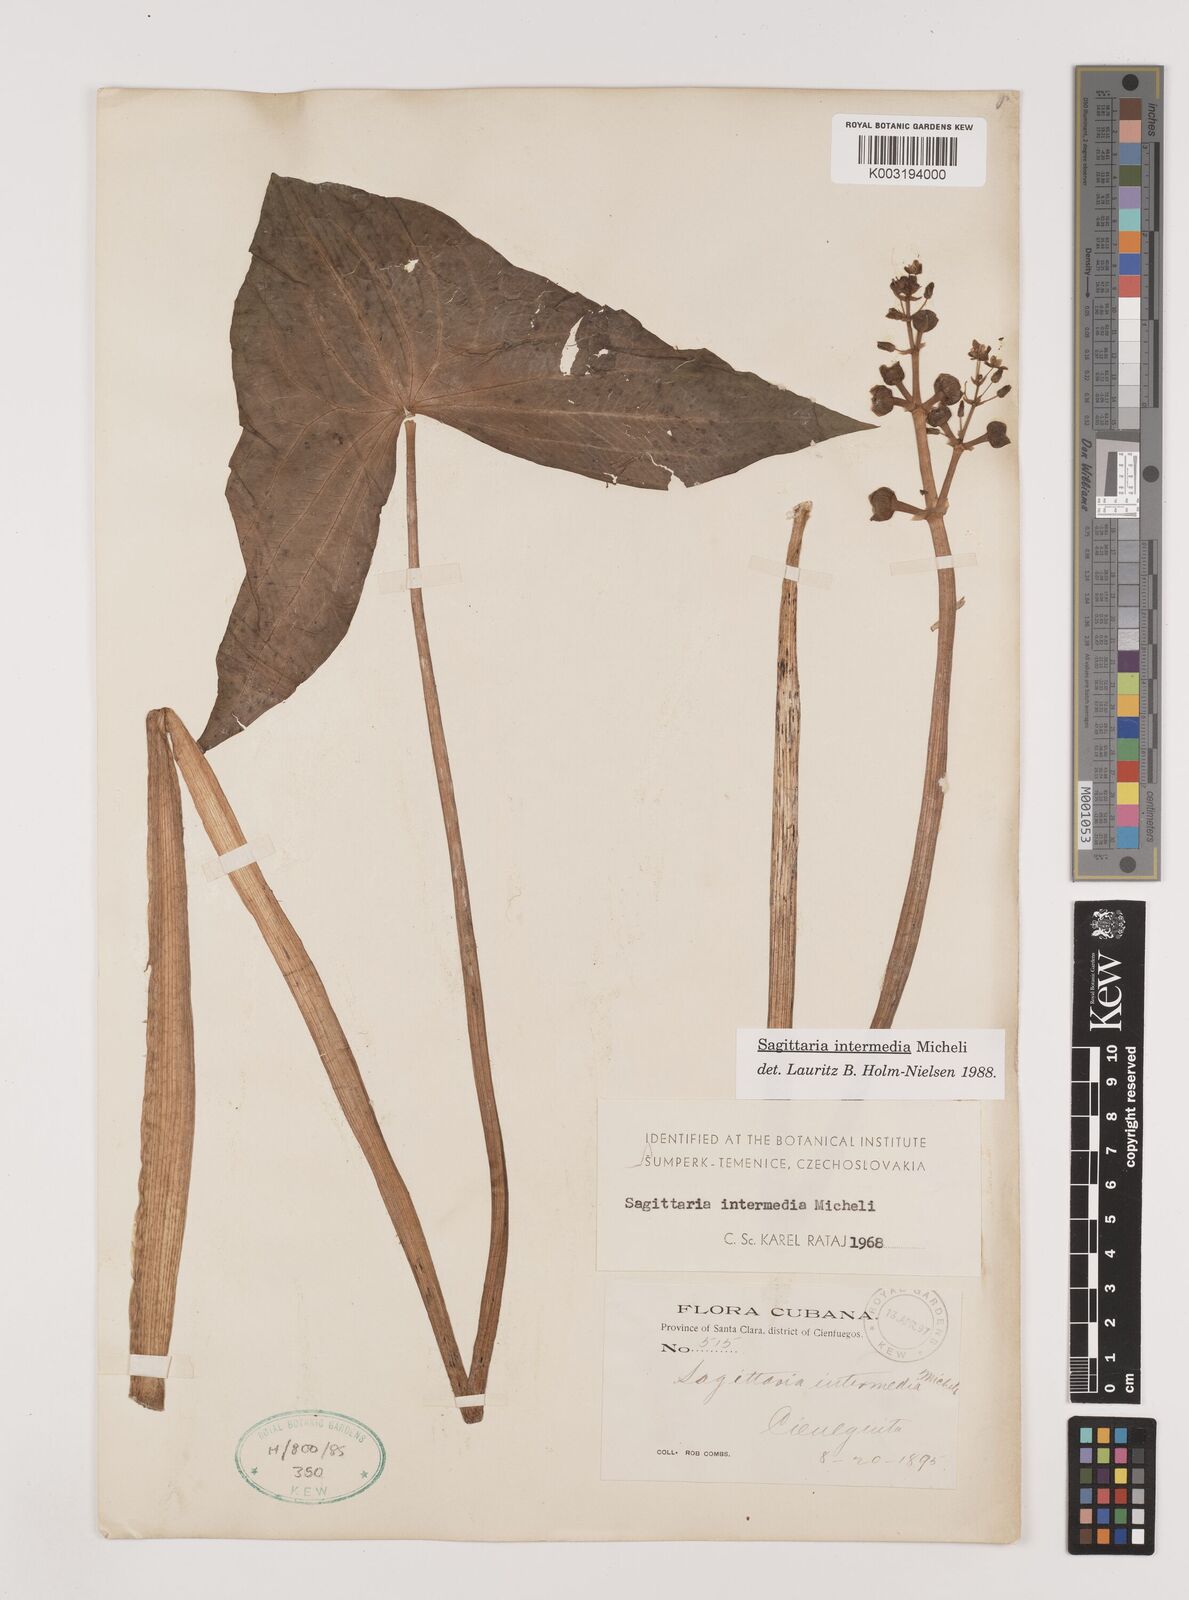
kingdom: Plantae
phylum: Tracheophyta
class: Liliopsida
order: Alismatales
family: Alismataceae
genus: Sagittaria
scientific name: Sagittaria intermedia
